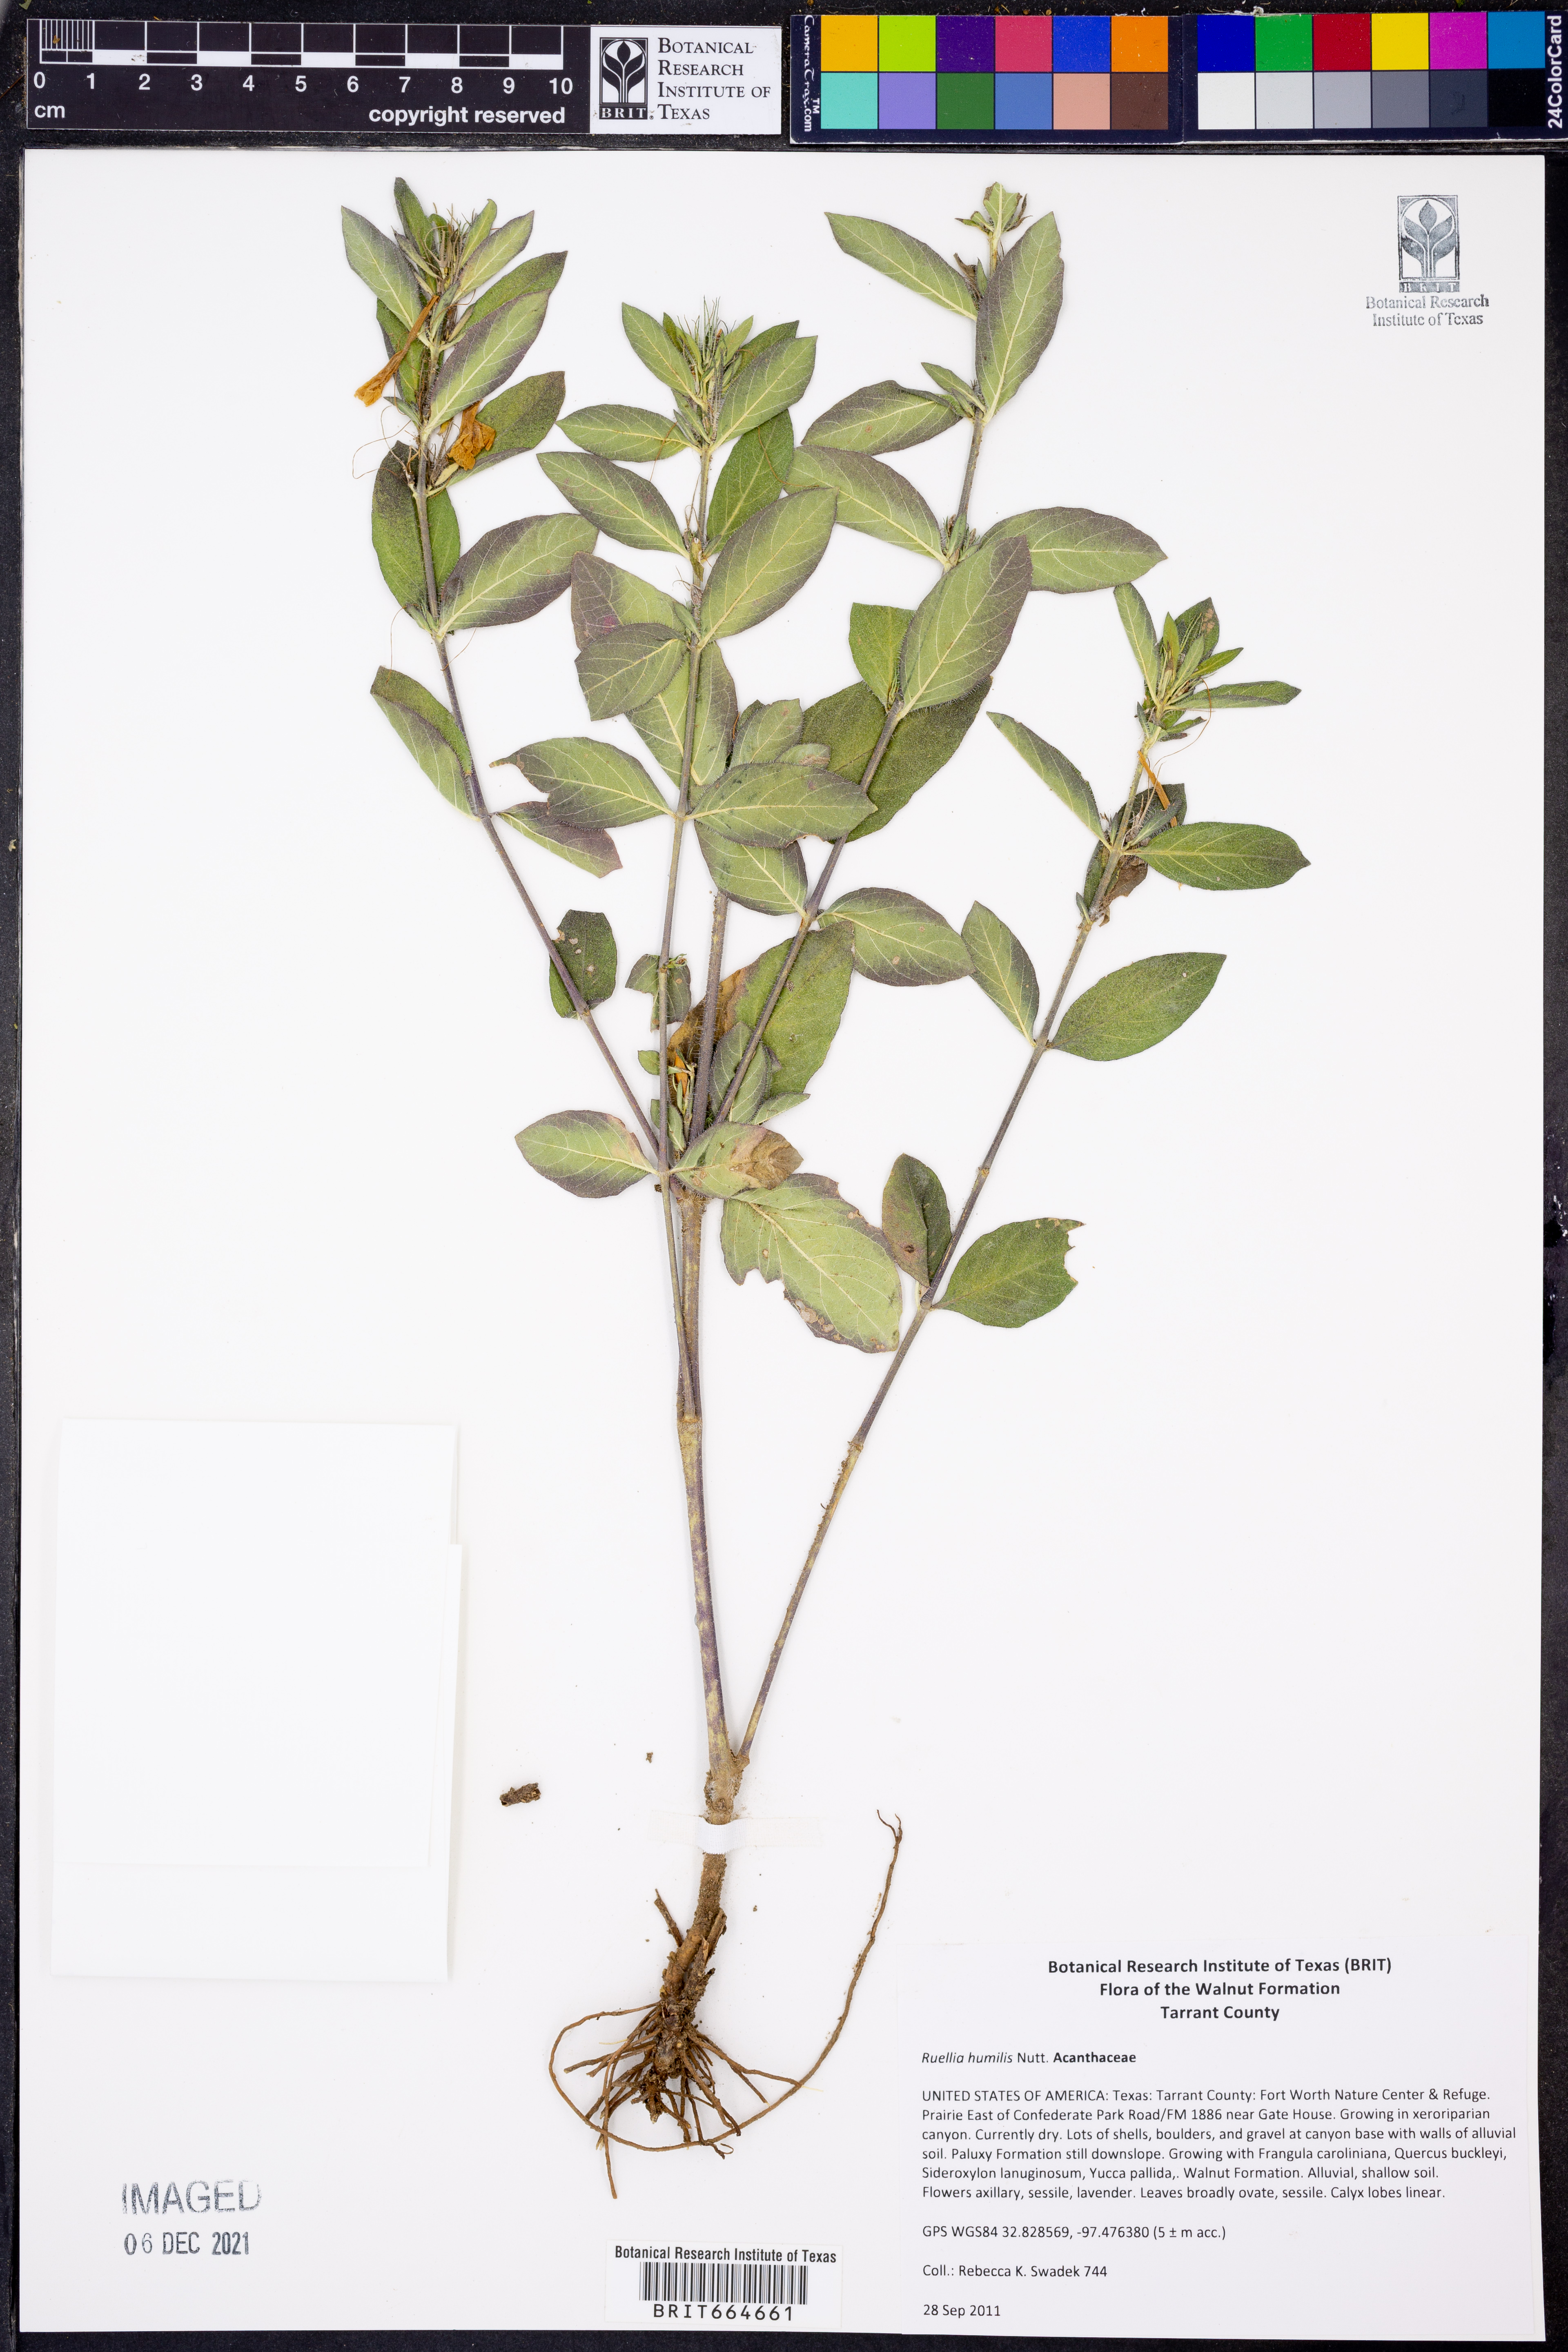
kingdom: Plantae
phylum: Tracheophyta
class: Magnoliopsida
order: Lamiales
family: Acanthaceae
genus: Ruellia
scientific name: Ruellia humilis
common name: Fringe-leaf ruellia
